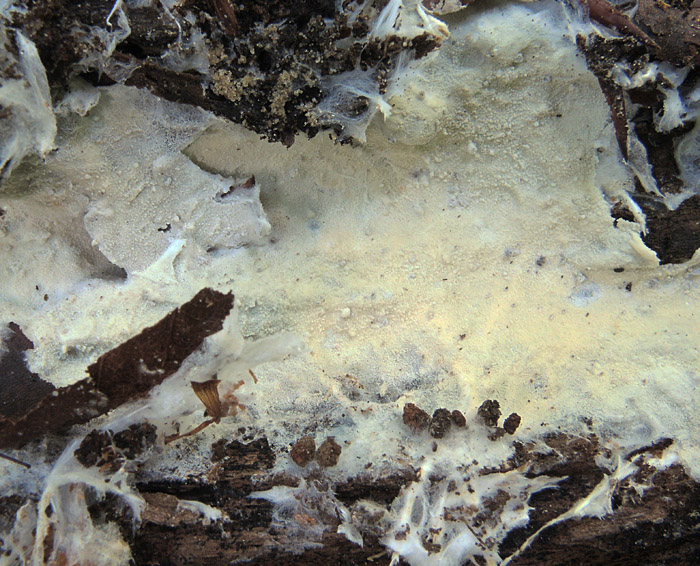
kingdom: Fungi
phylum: Basidiomycota
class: Agaricomycetes
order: Trechisporales
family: Sistotremataceae
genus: Trechispora
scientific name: Trechispora cohaerens
